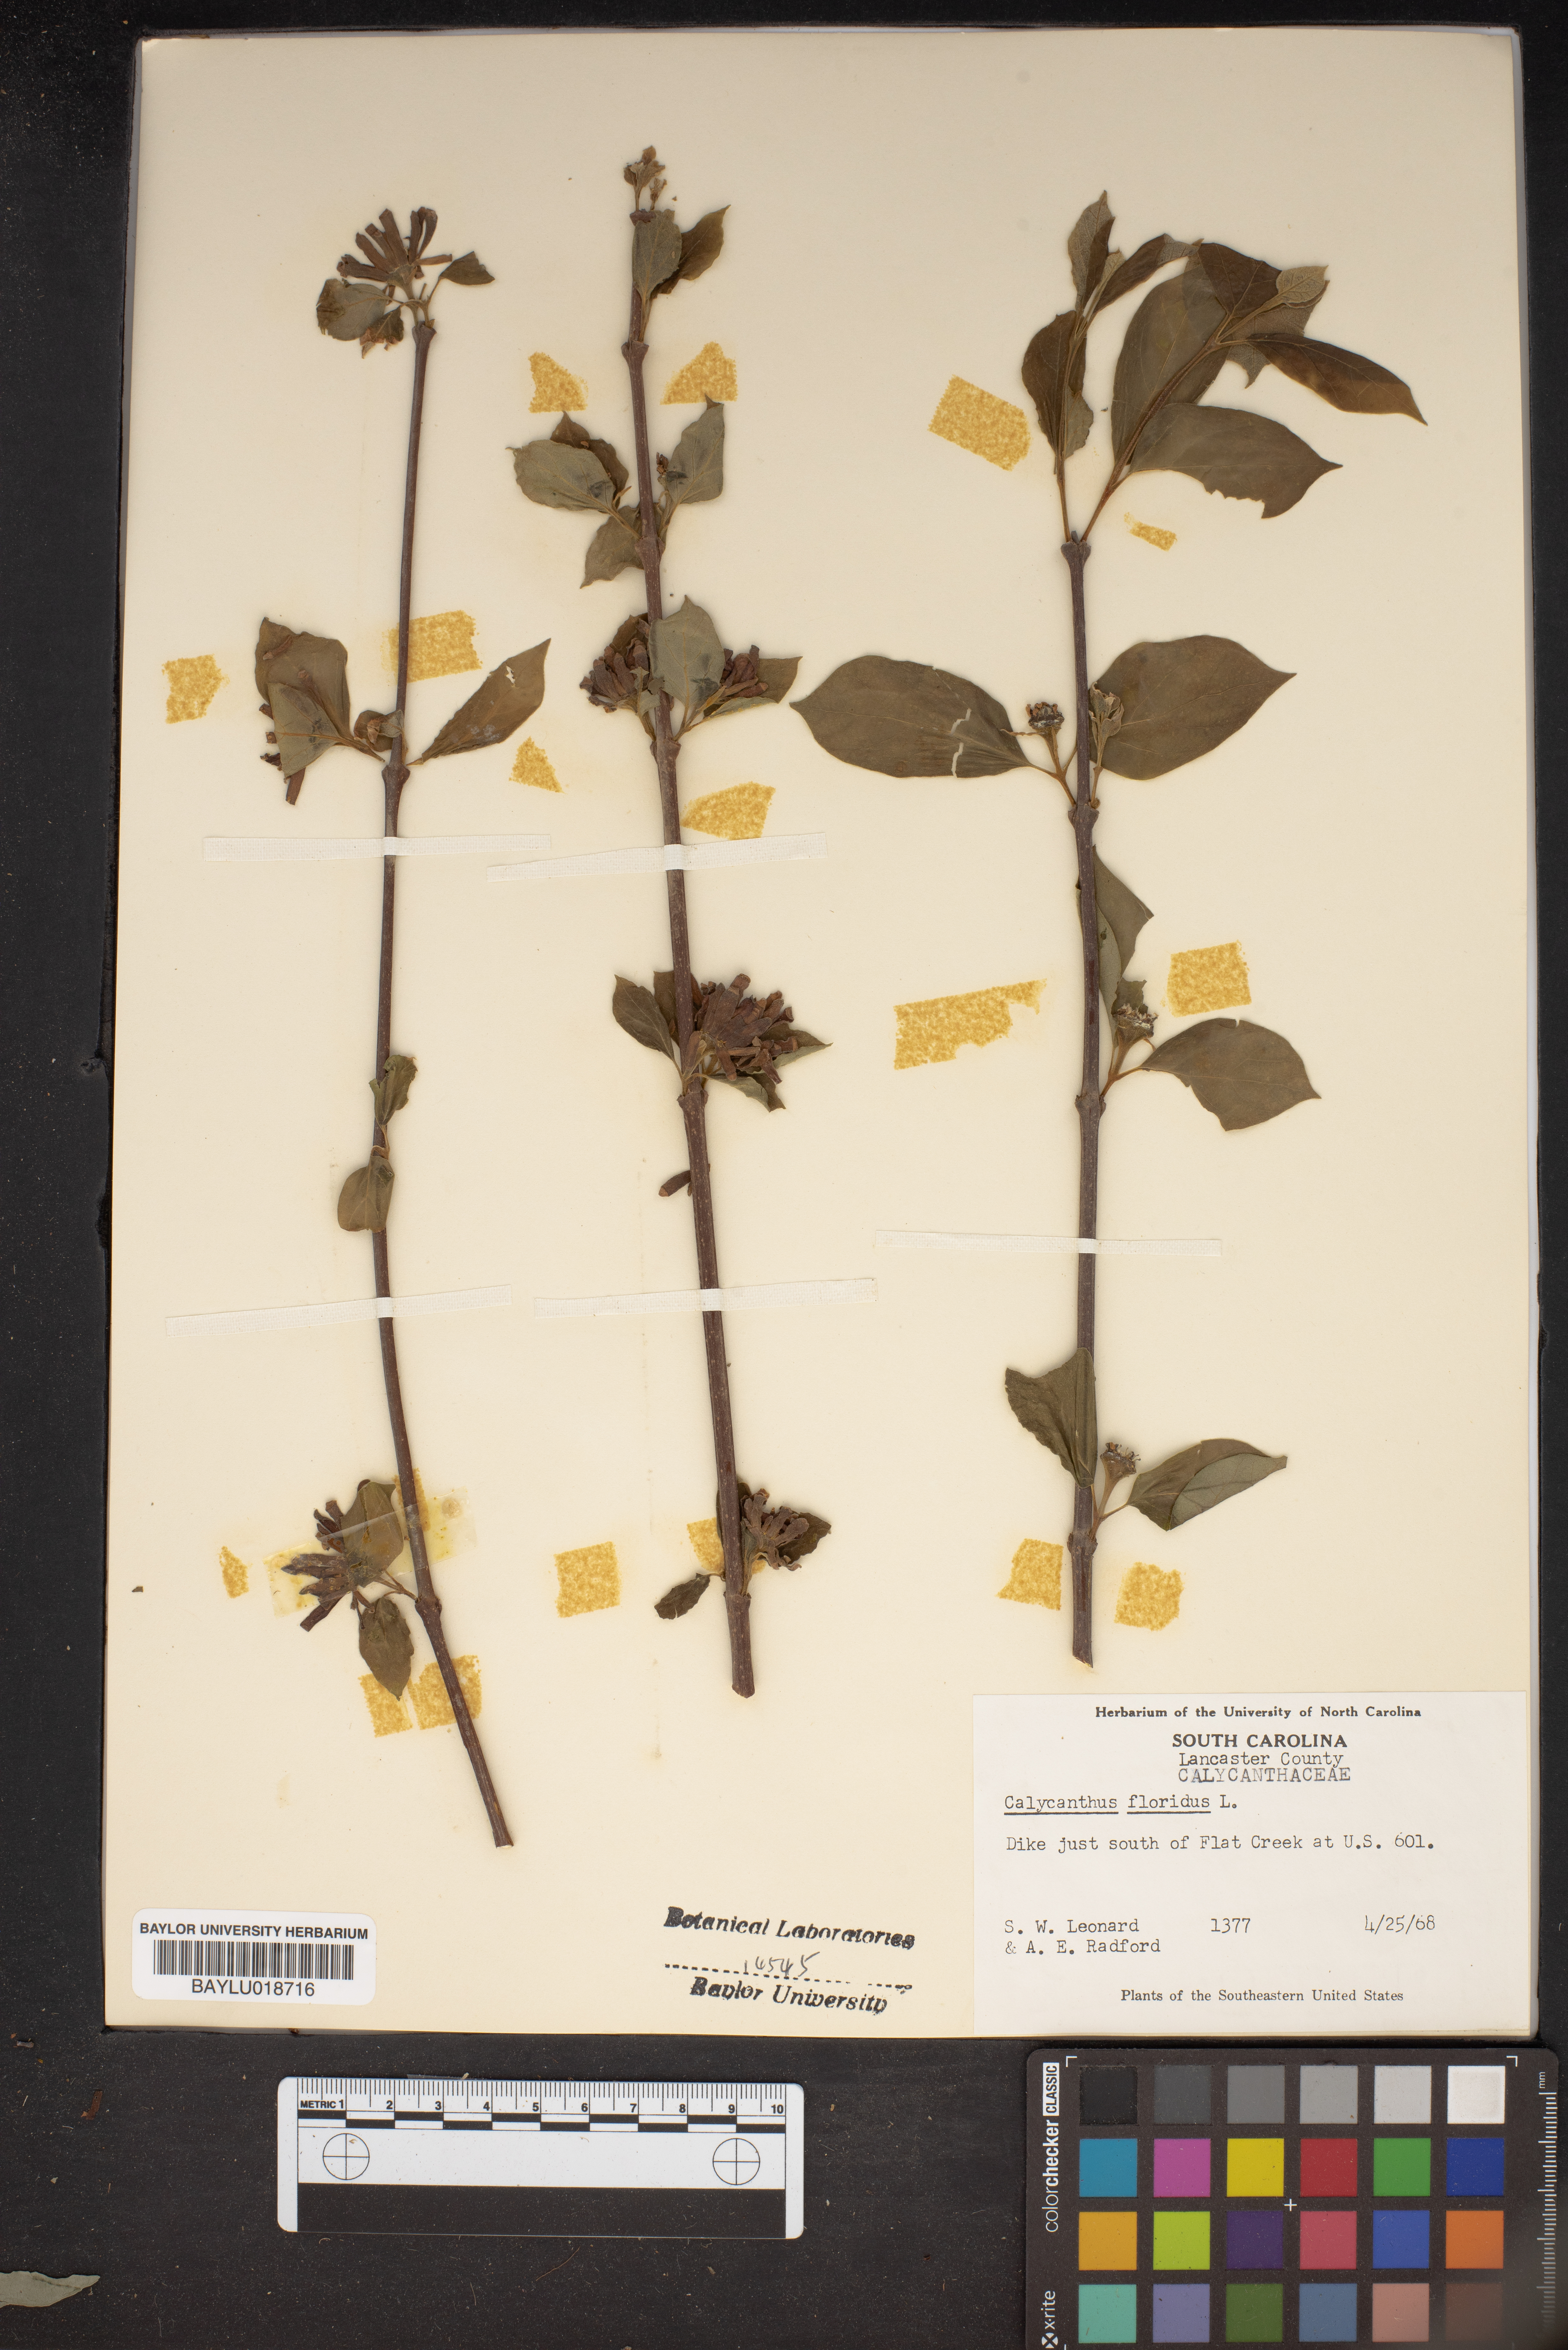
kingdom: Plantae
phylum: Tracheophyta
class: Magnoliopsida
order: Laurales
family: Calycanthaceae
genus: Calycanthus
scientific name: Calycanthus floridus
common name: Carolina-allspice
